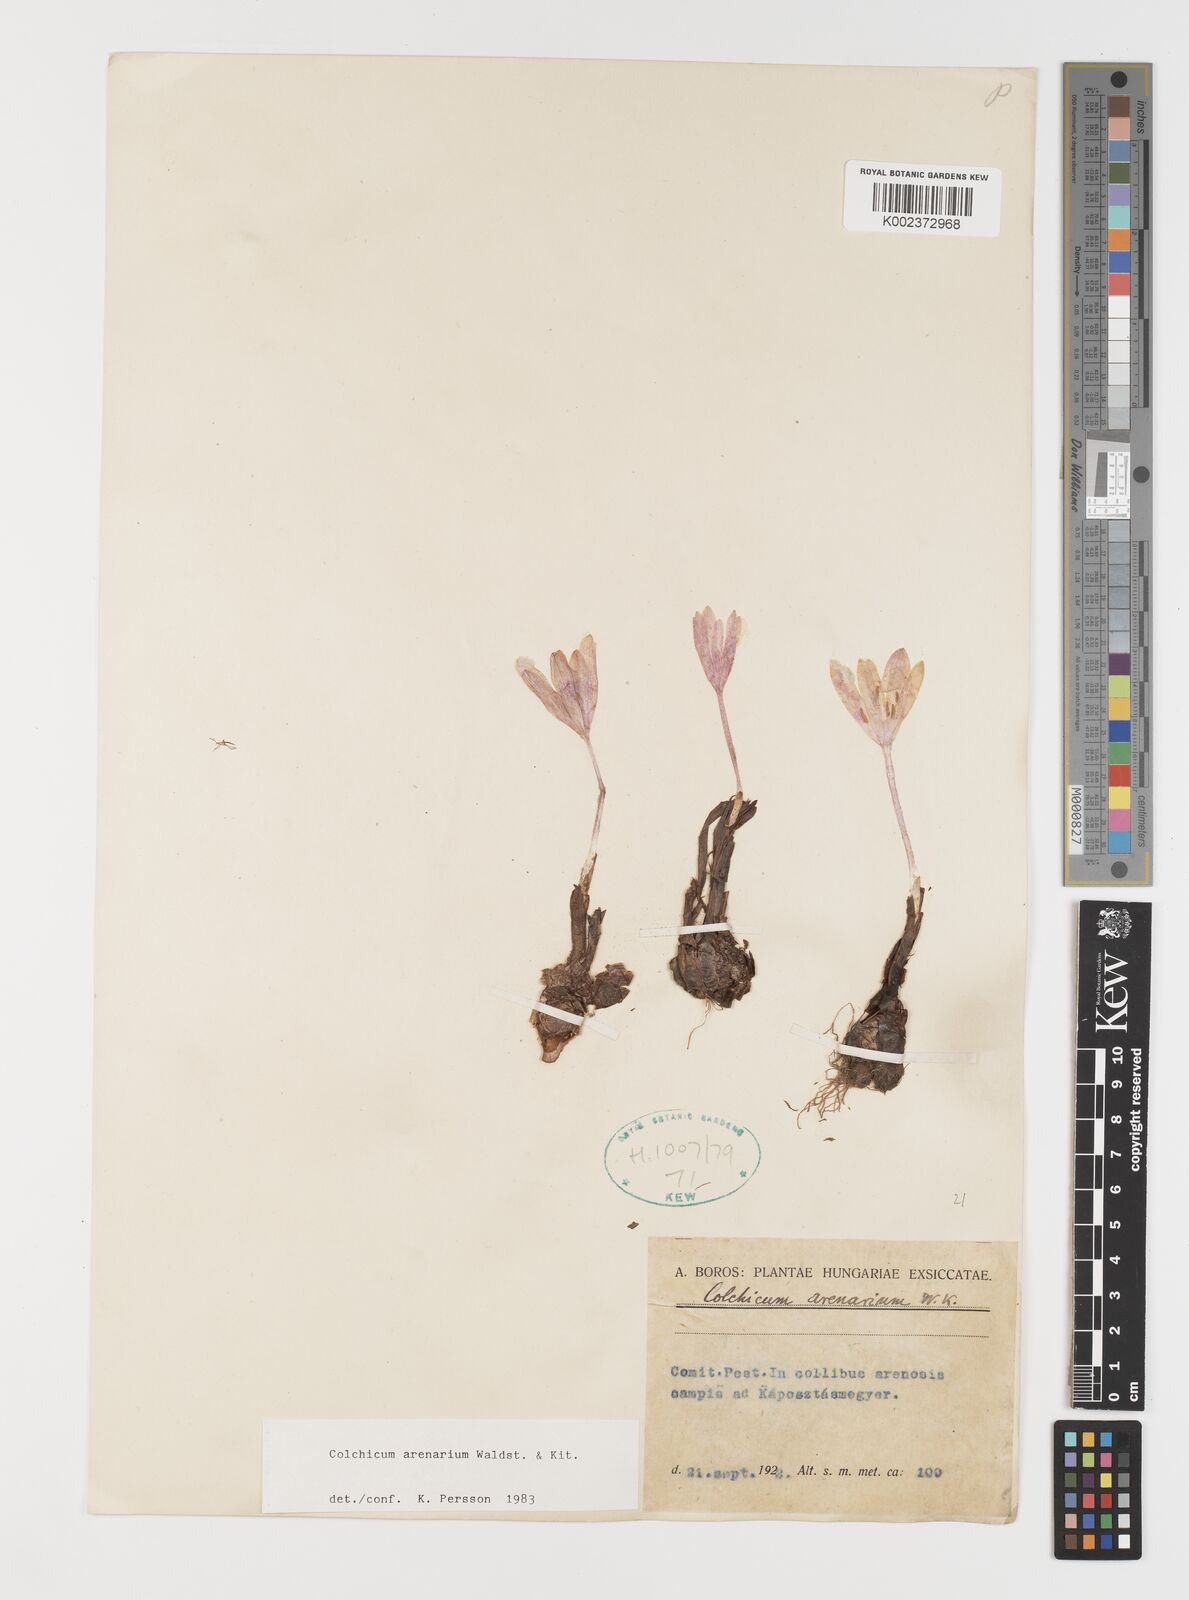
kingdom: Plantae
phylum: Tracheophyta
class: Liliopsida
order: Liliales
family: Colchicaceae
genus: Colchicum
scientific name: Colchicum arenarium
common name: Sand saffron
